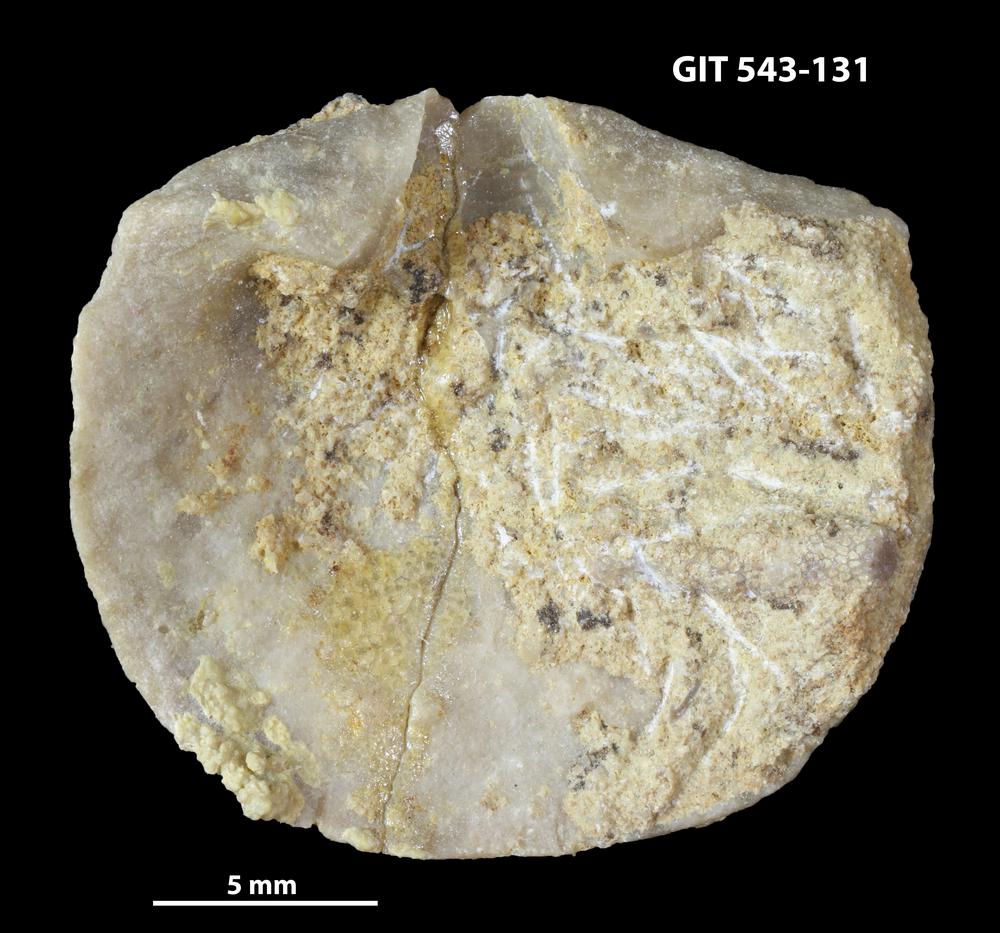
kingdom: Animalia
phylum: Brachiopoda
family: Gonambonitidae
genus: Estlandia
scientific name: Estlandia Orthisina marginata
